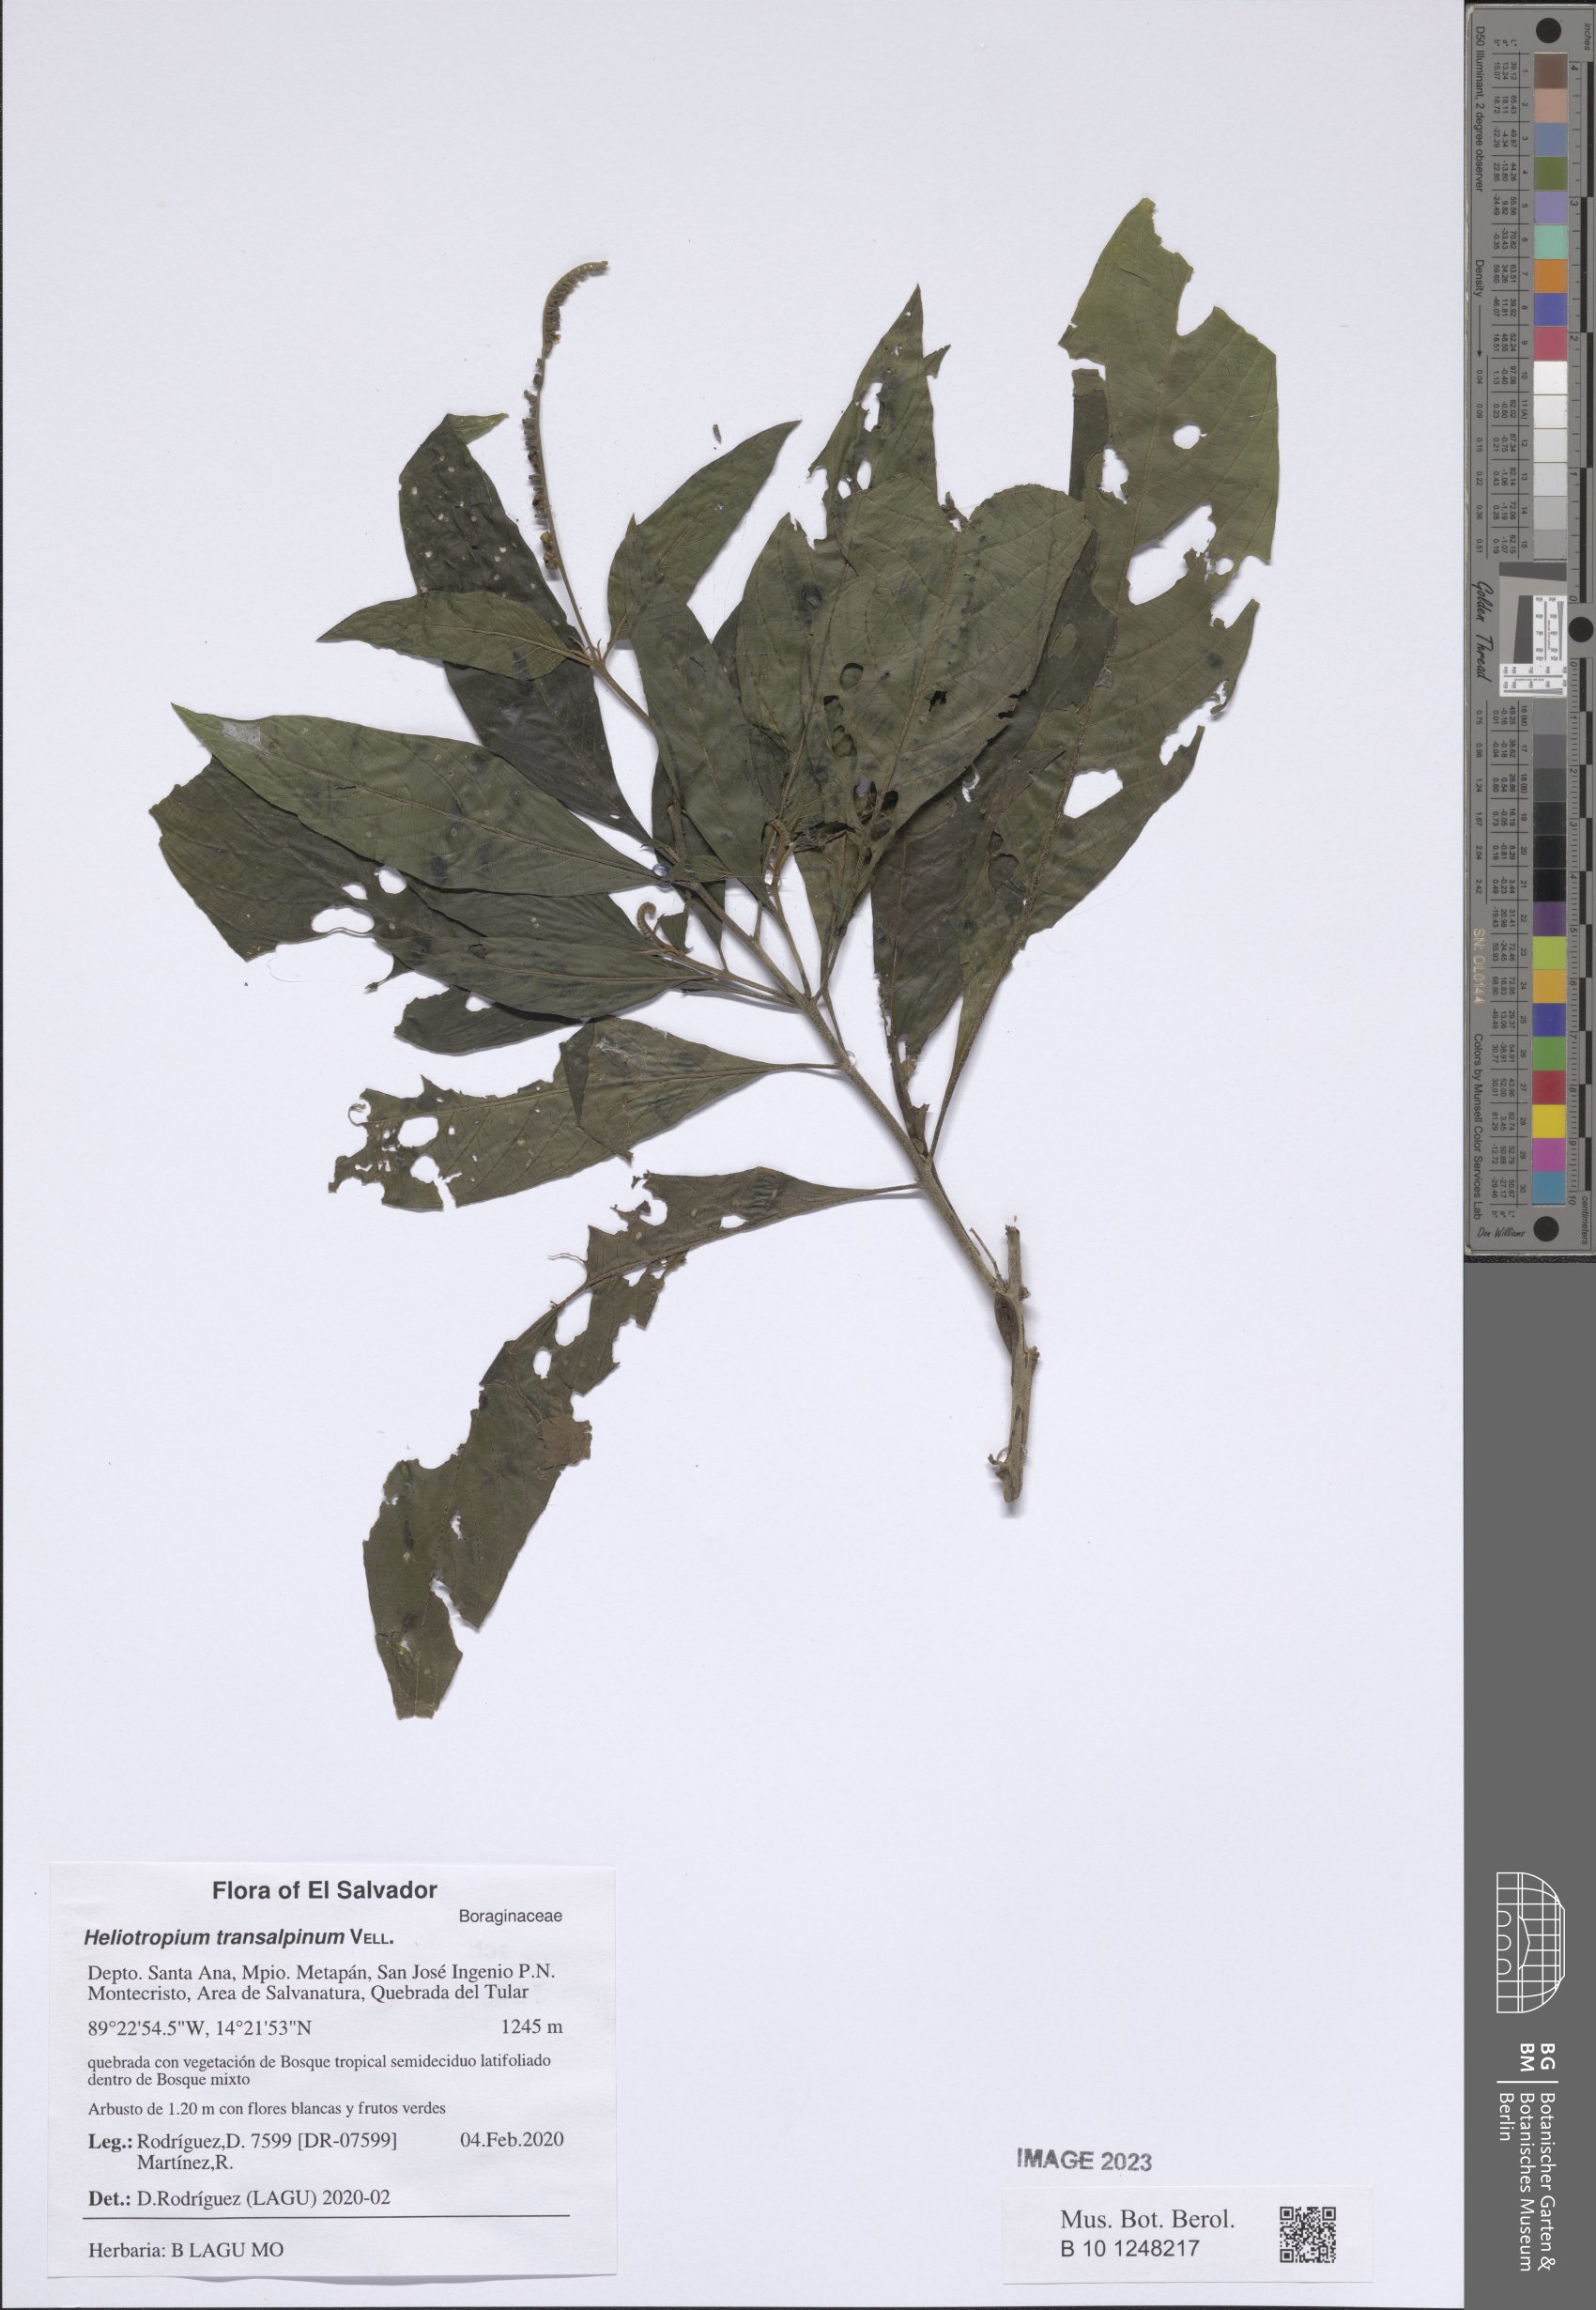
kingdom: Plantae
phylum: Tracheophyta
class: Magnoliopsida
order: Boraginales
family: Heliotropiaceae
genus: Heliotropium
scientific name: Heliotropium transalpinum
